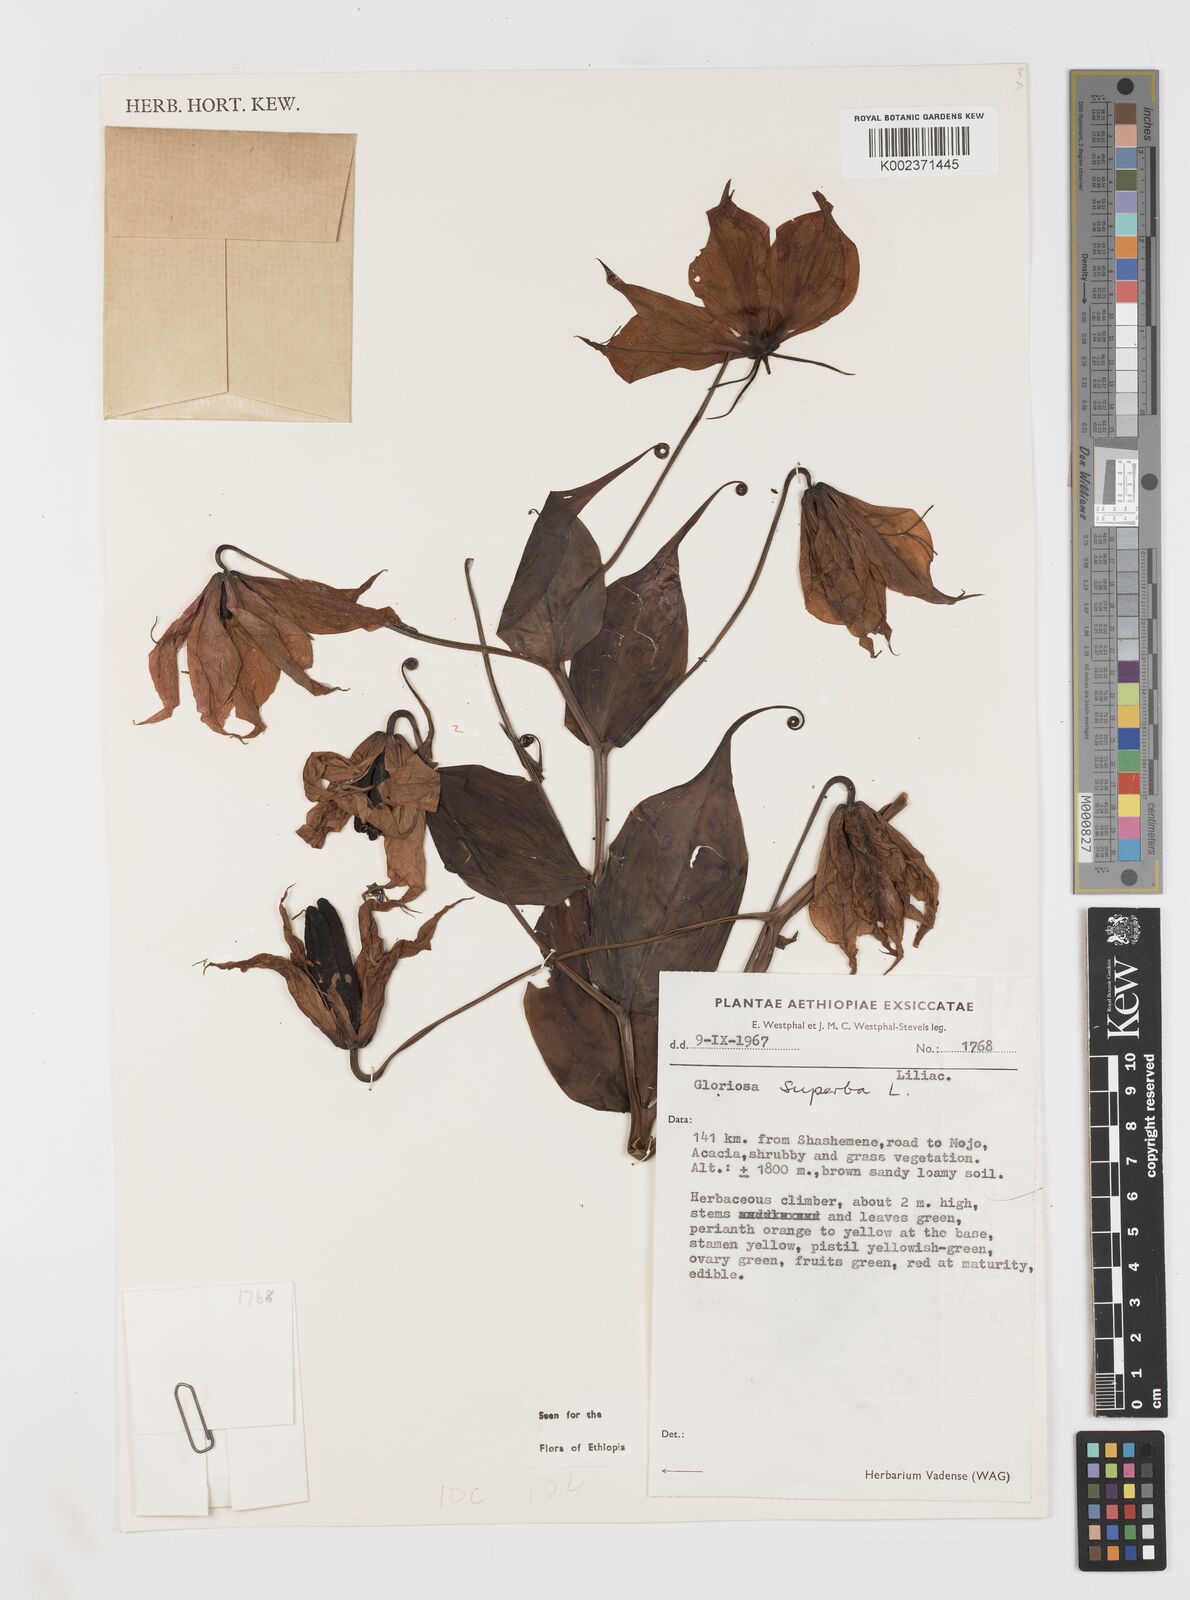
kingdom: Plantae
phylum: Tracheophyta
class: Liliopsida
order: Liliales
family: Colchicaceae
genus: Gloriosa
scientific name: Gloriosa simplex
